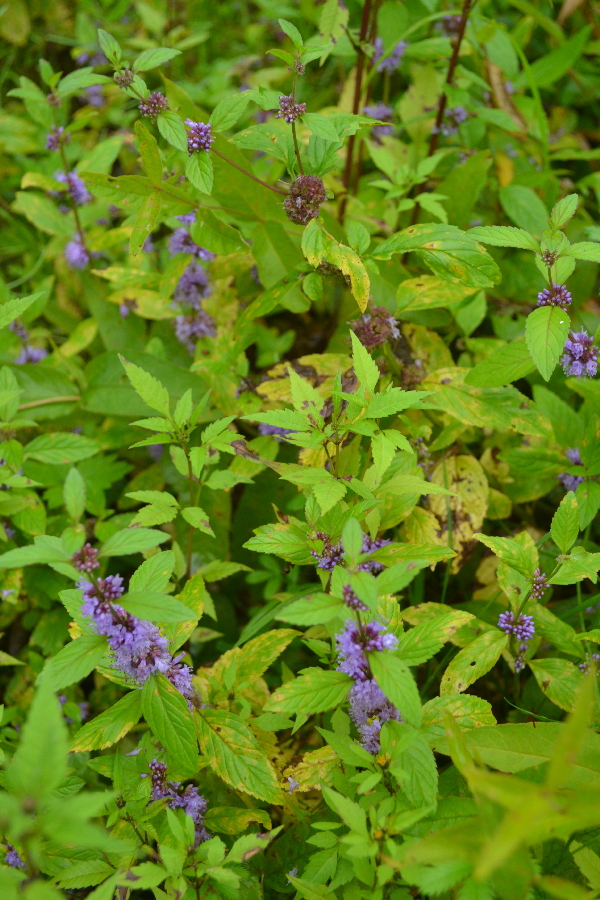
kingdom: Plantae
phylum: Tracheophyta
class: Magnoliopsida
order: Lamiales
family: Lamiaceae
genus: Mentha
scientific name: Mentha arvensis
